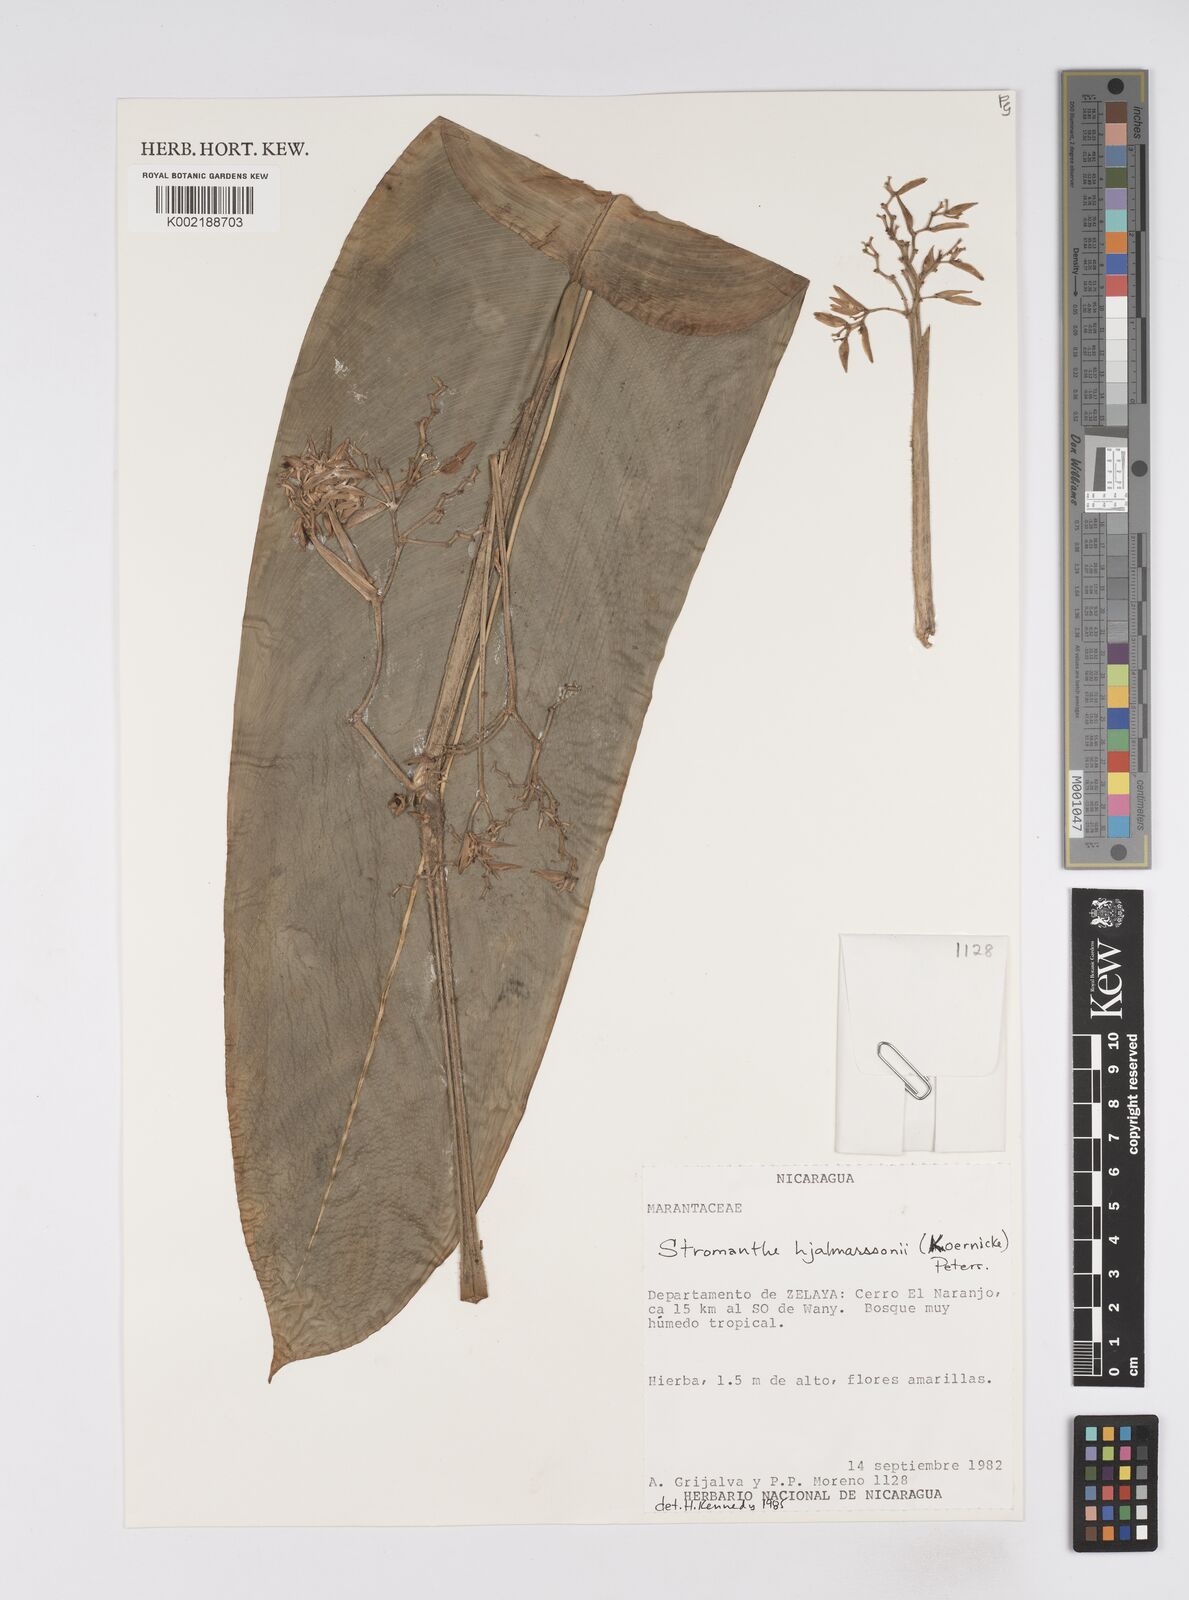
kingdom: Plantae
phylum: Tracheophyta
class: Liliopsida
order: Zingiberales
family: Marantaceae
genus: Stromanthe
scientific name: Stromanthe hjalmarssonii
